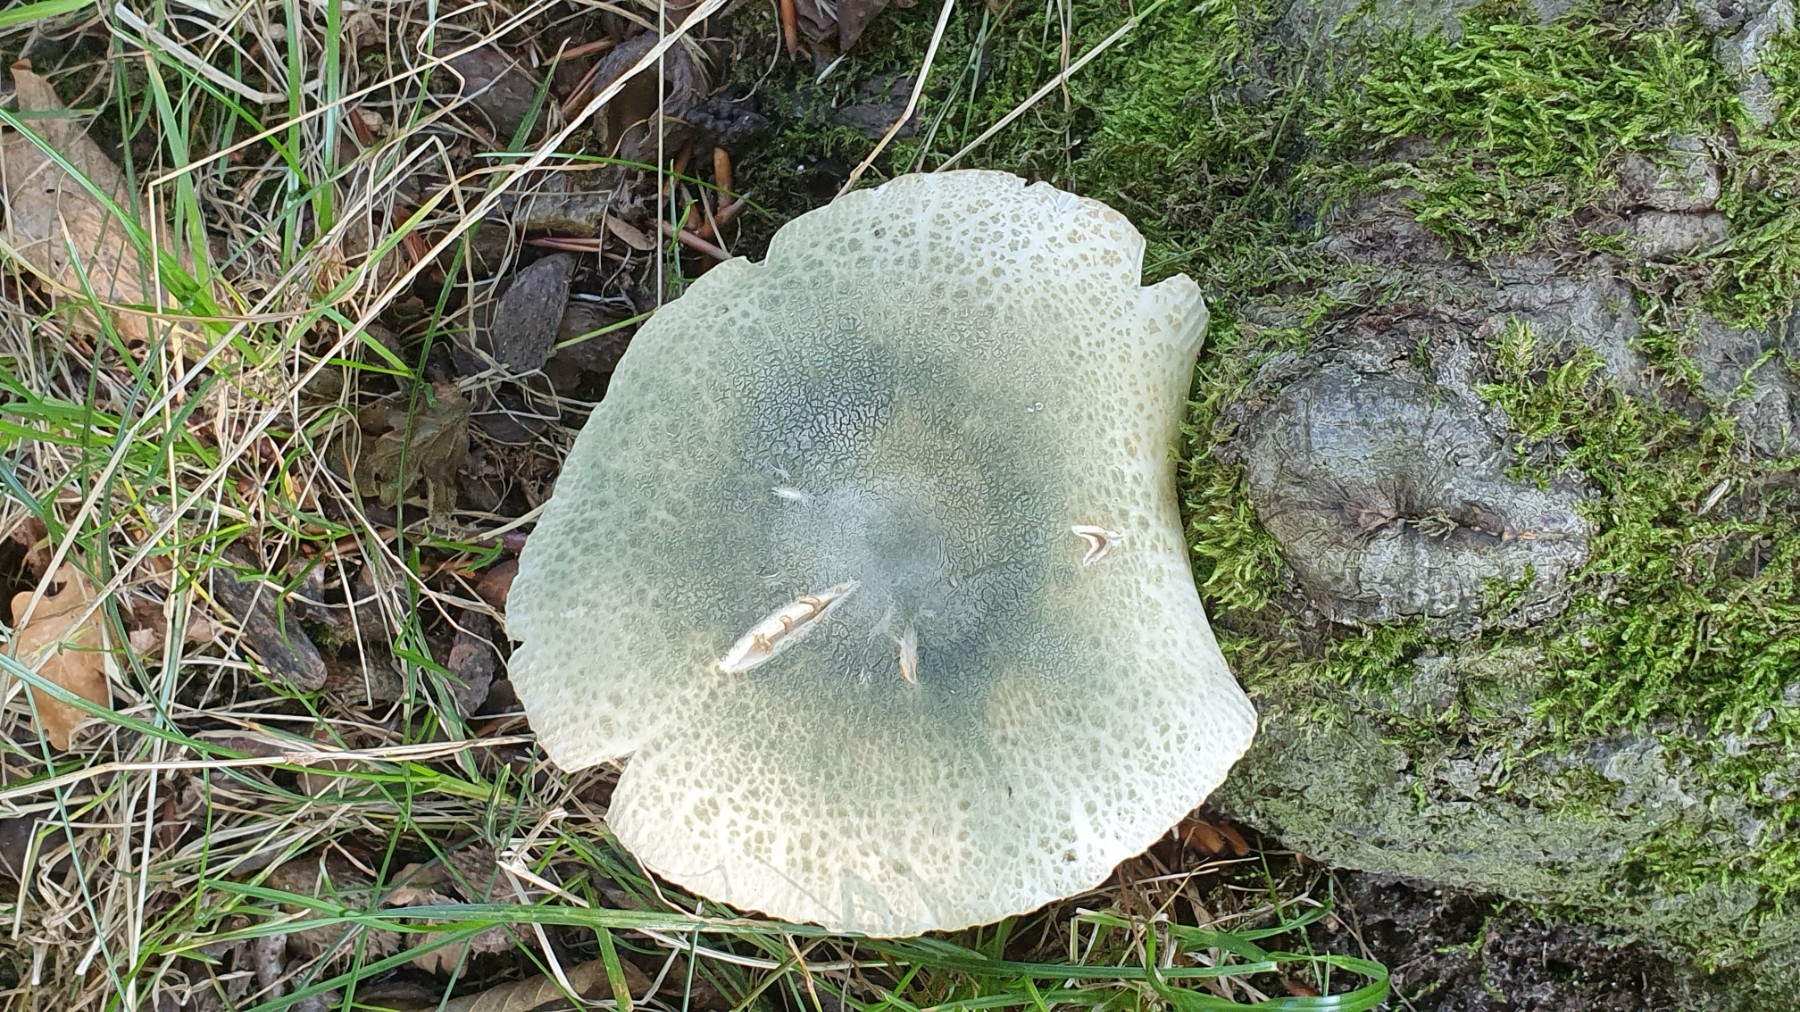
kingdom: Fungi
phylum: Basidiomycota
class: Agaricomycetes
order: Russulales
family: Russulaceae
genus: Russula
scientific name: Russula virescens
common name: spanskgrøn skørhat
